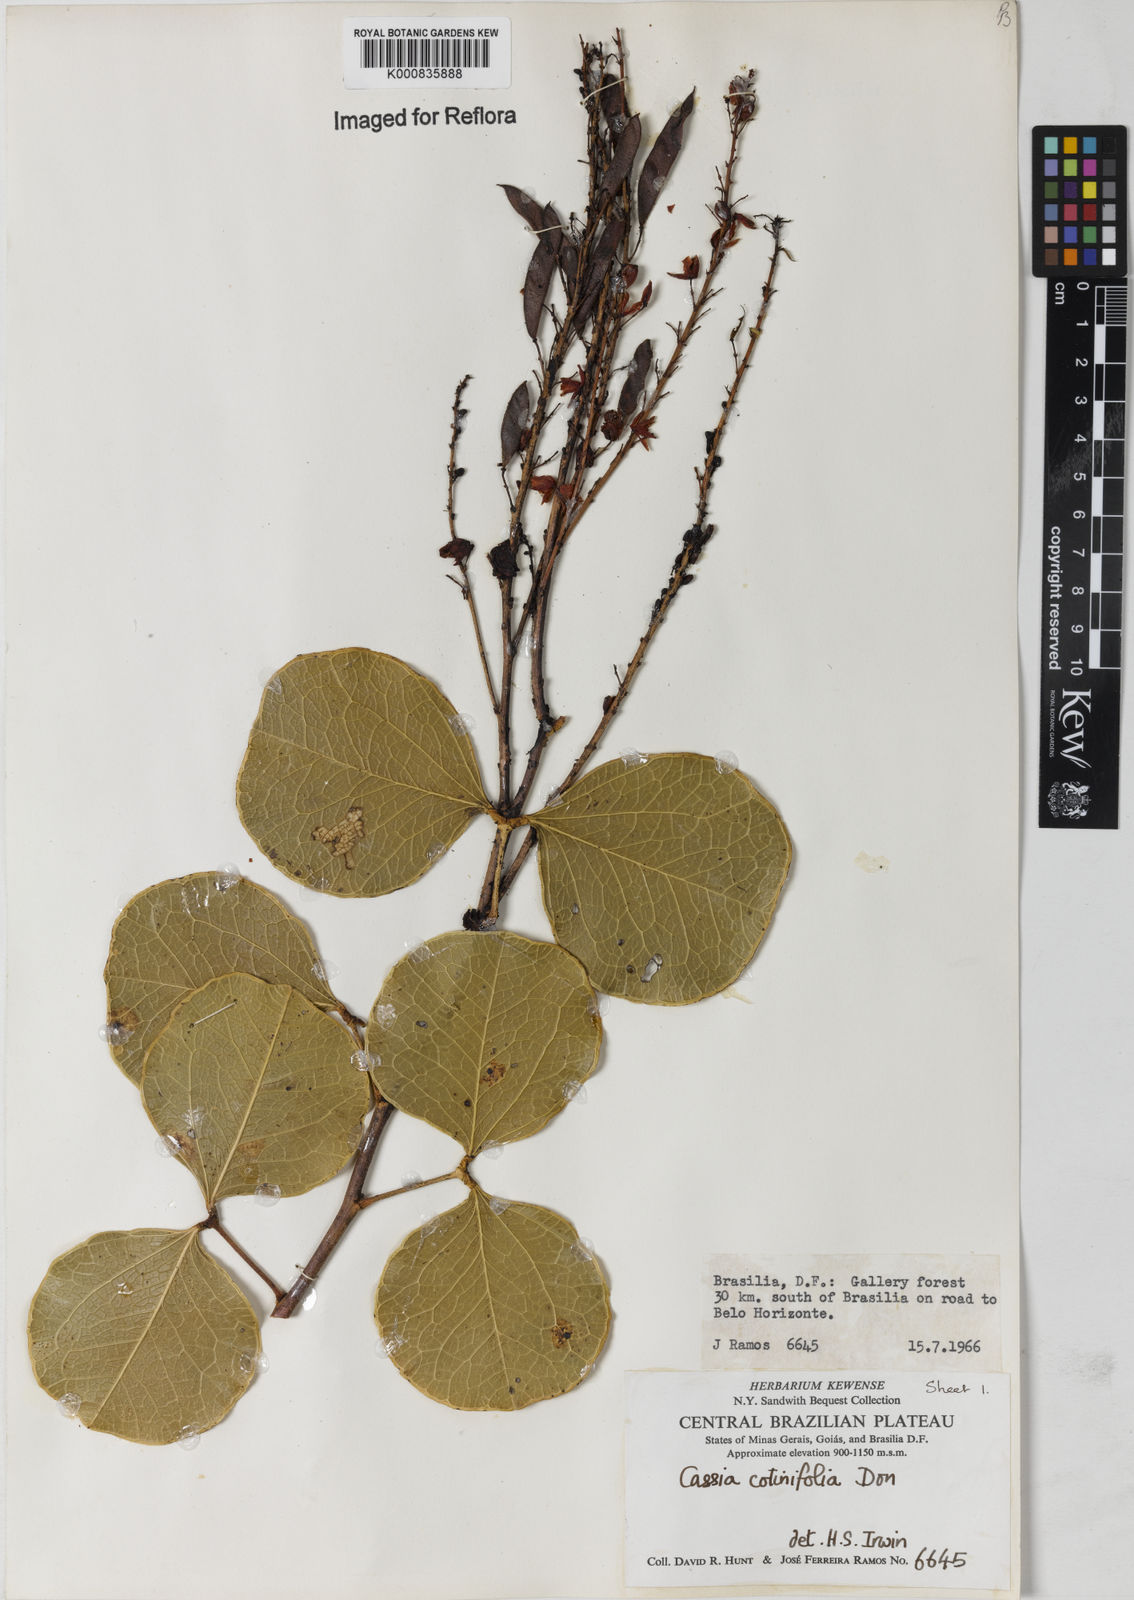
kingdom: Plantae
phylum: Tracheophyta
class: Magnoliopsida
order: Fabales
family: Fabaceae
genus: Chamaecrista
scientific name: Chamaecrista cotinifolia
